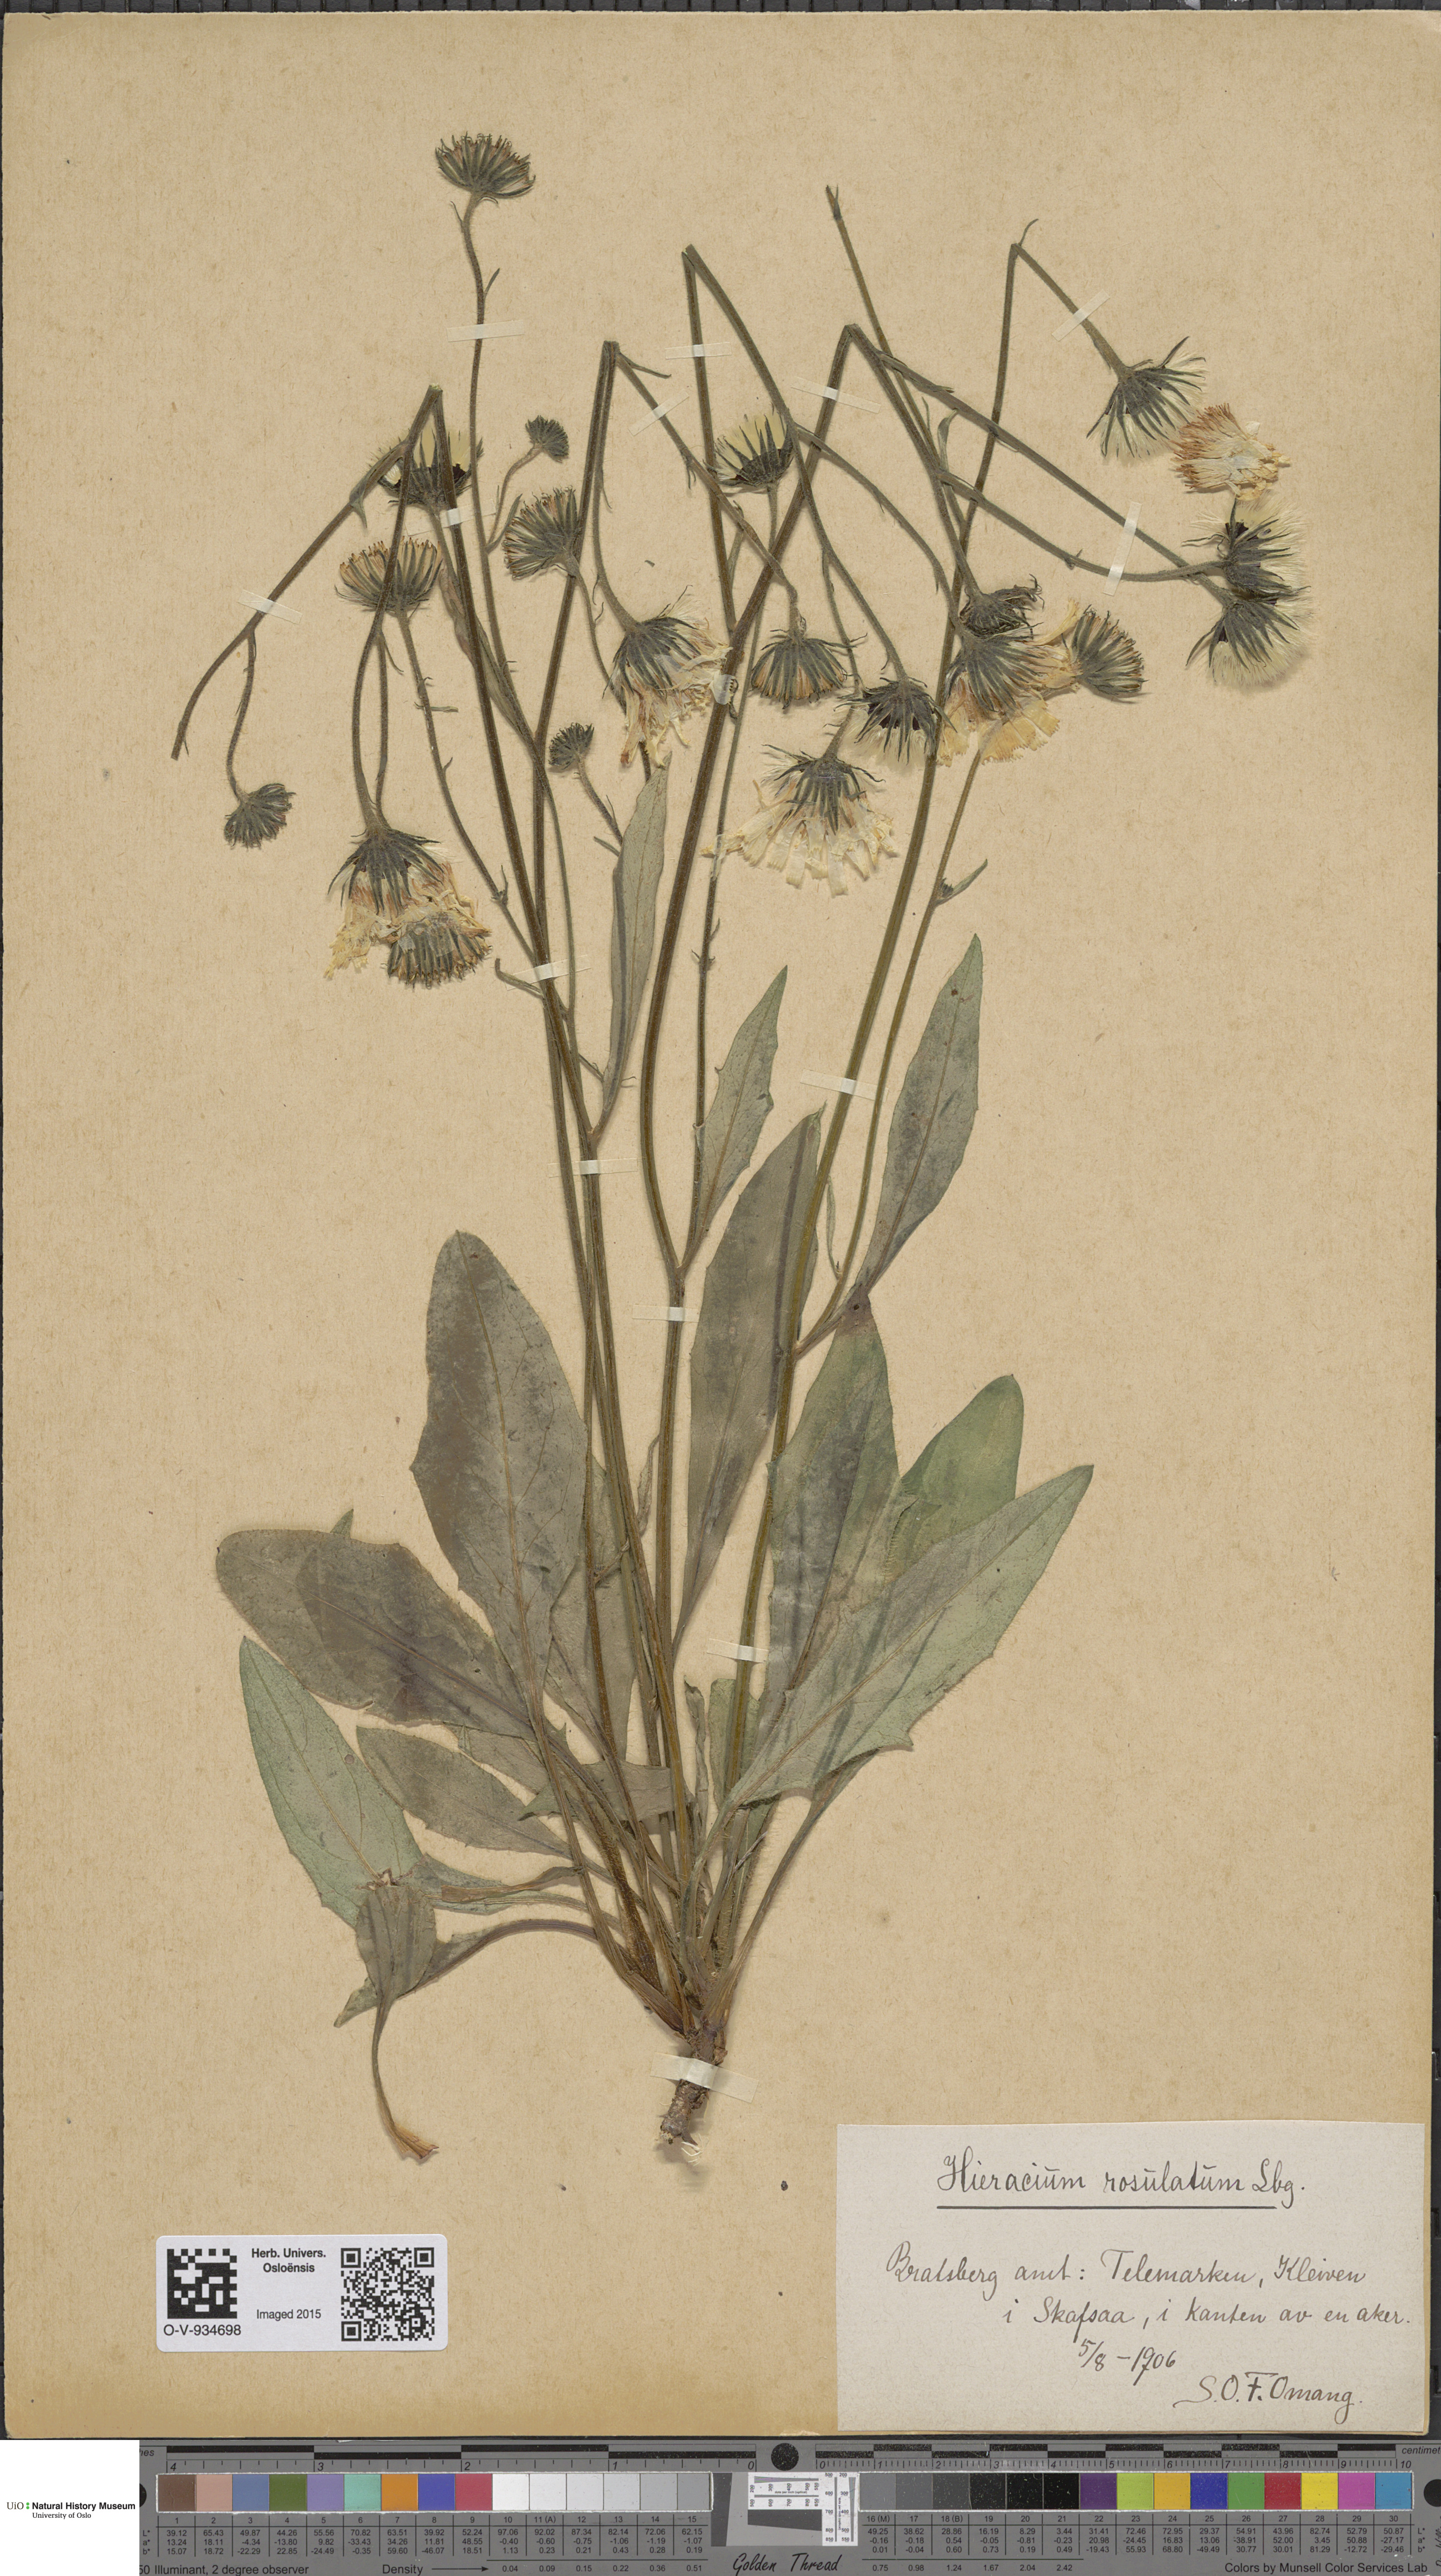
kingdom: Plantae
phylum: Tracheophyta
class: Magnoliopsida
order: Asterales
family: Asteraceae
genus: Hieracium
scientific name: Hieracium rosulatum
